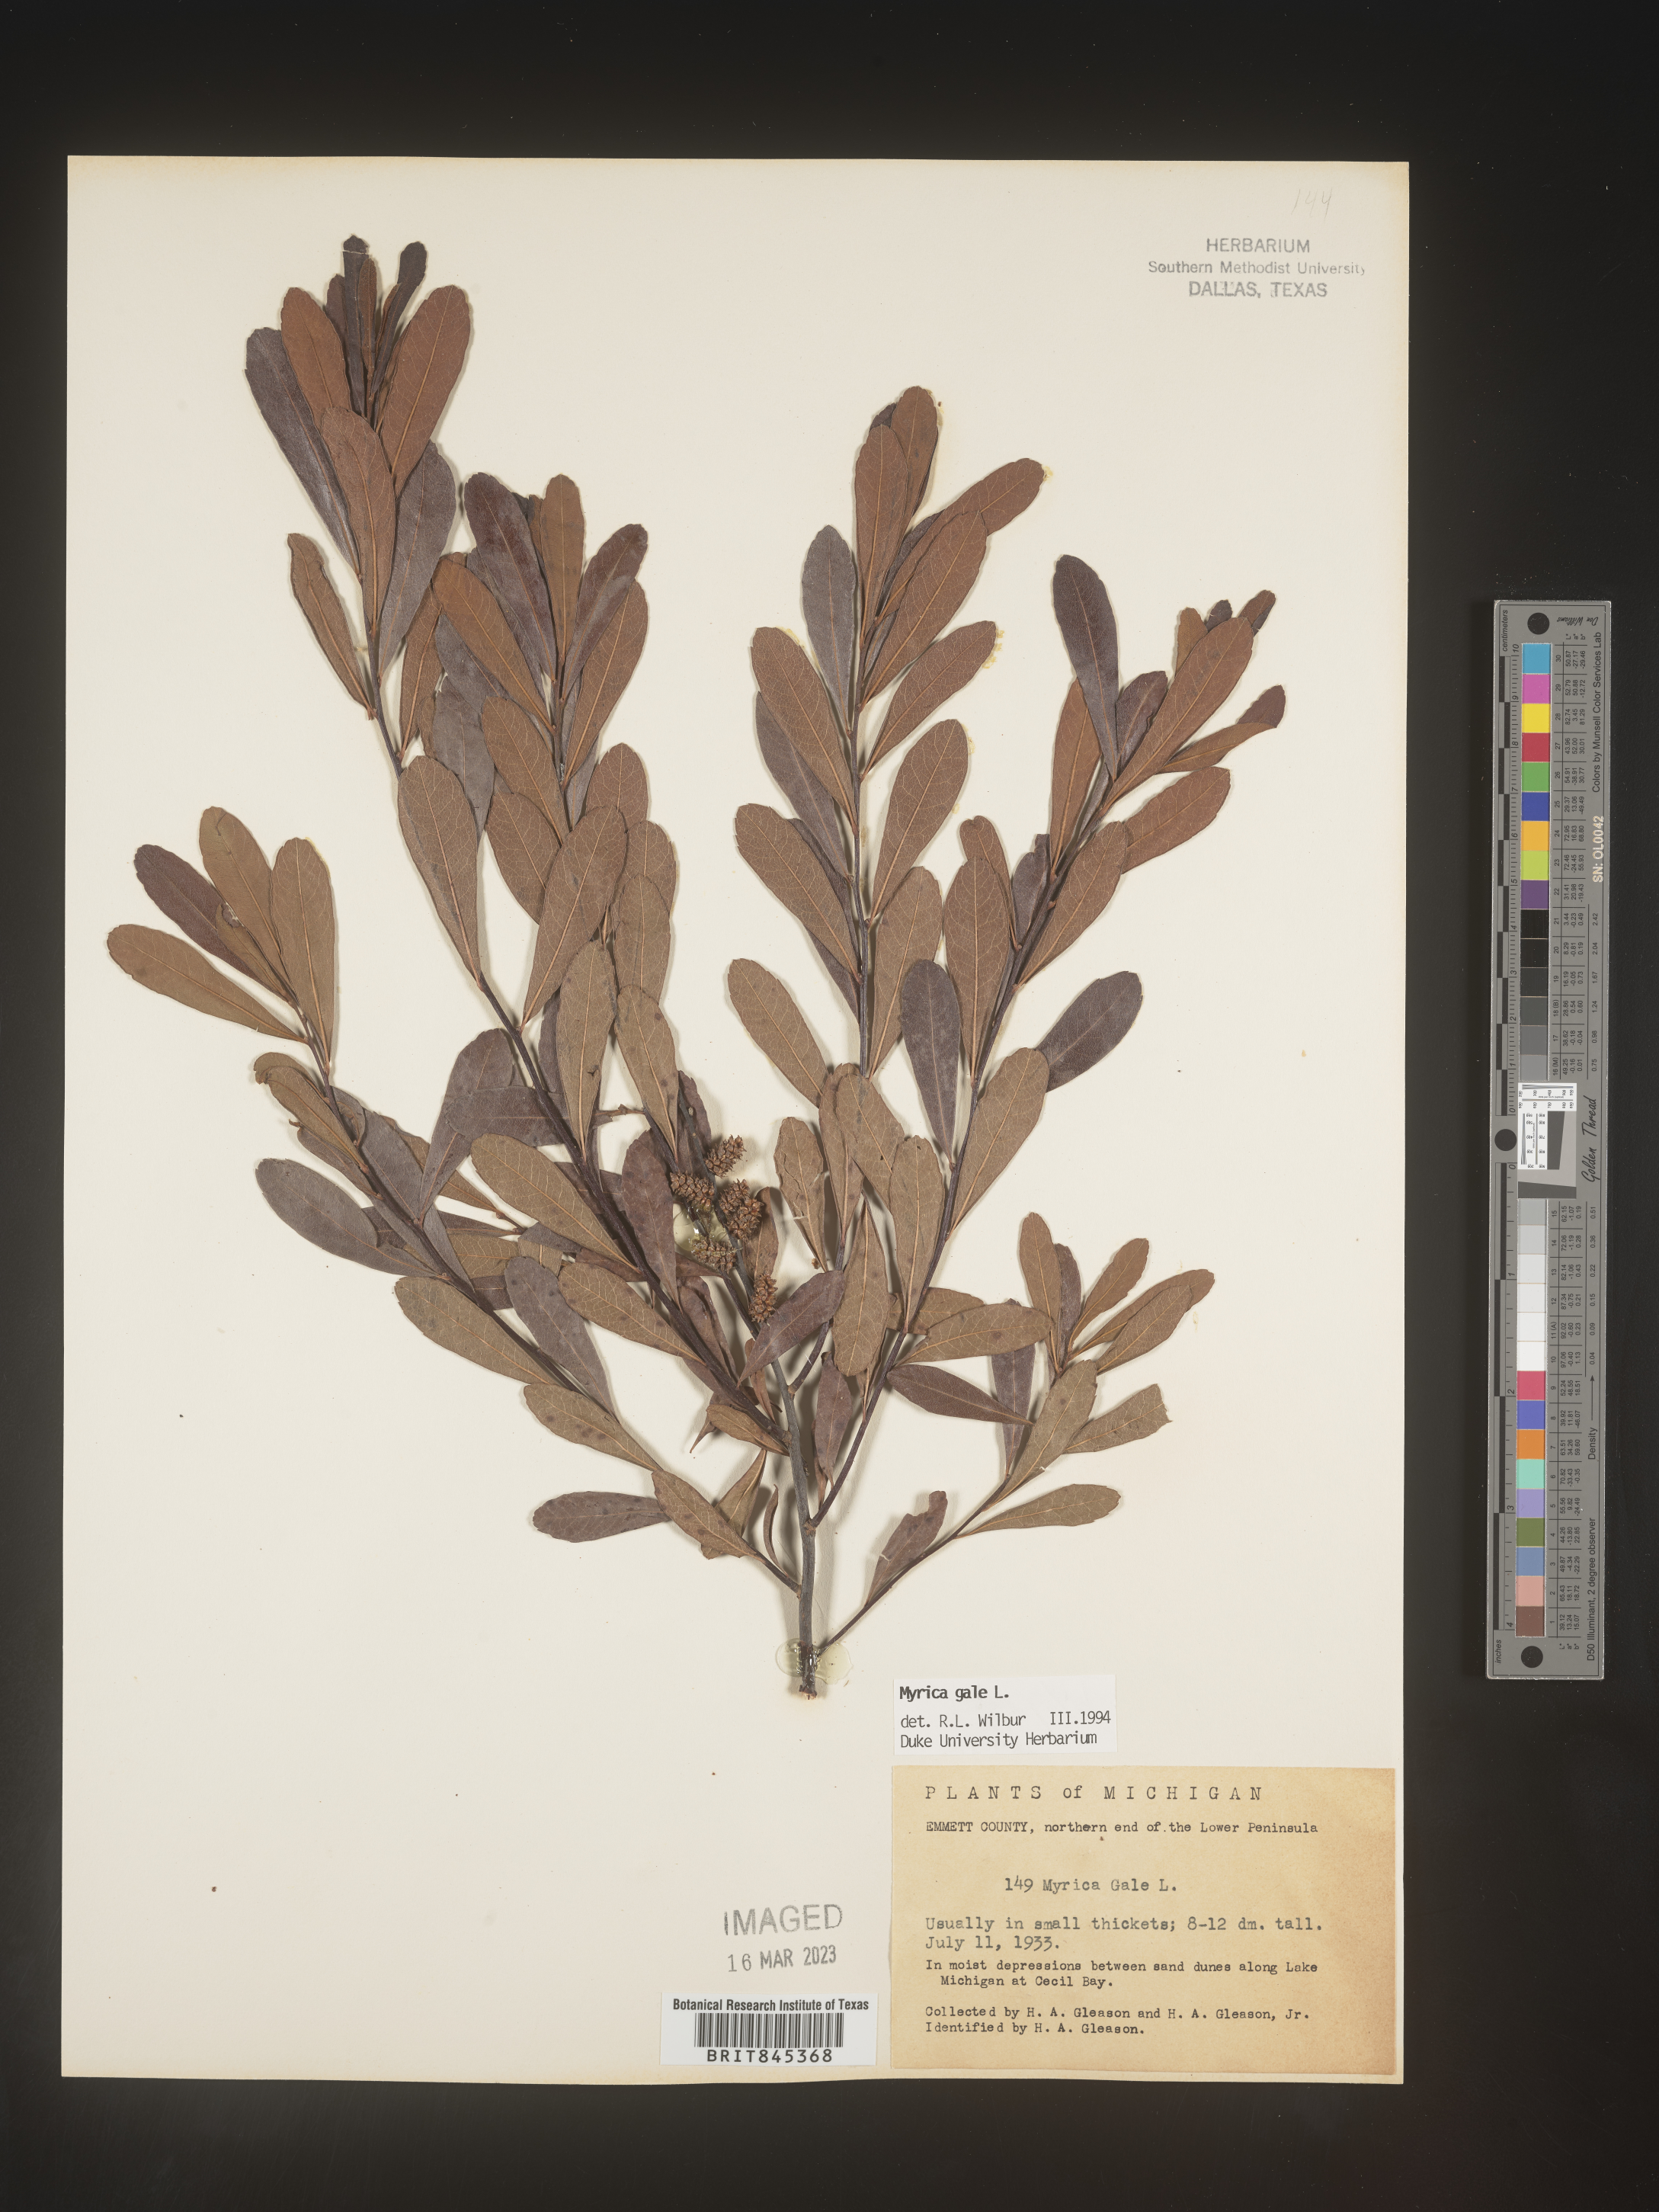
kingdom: Plantae
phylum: Tracheophyta
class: Magnoliopsida
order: Fagales
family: Myricaceae
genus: Myrica
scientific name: Myrica gale
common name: Sweet gale
